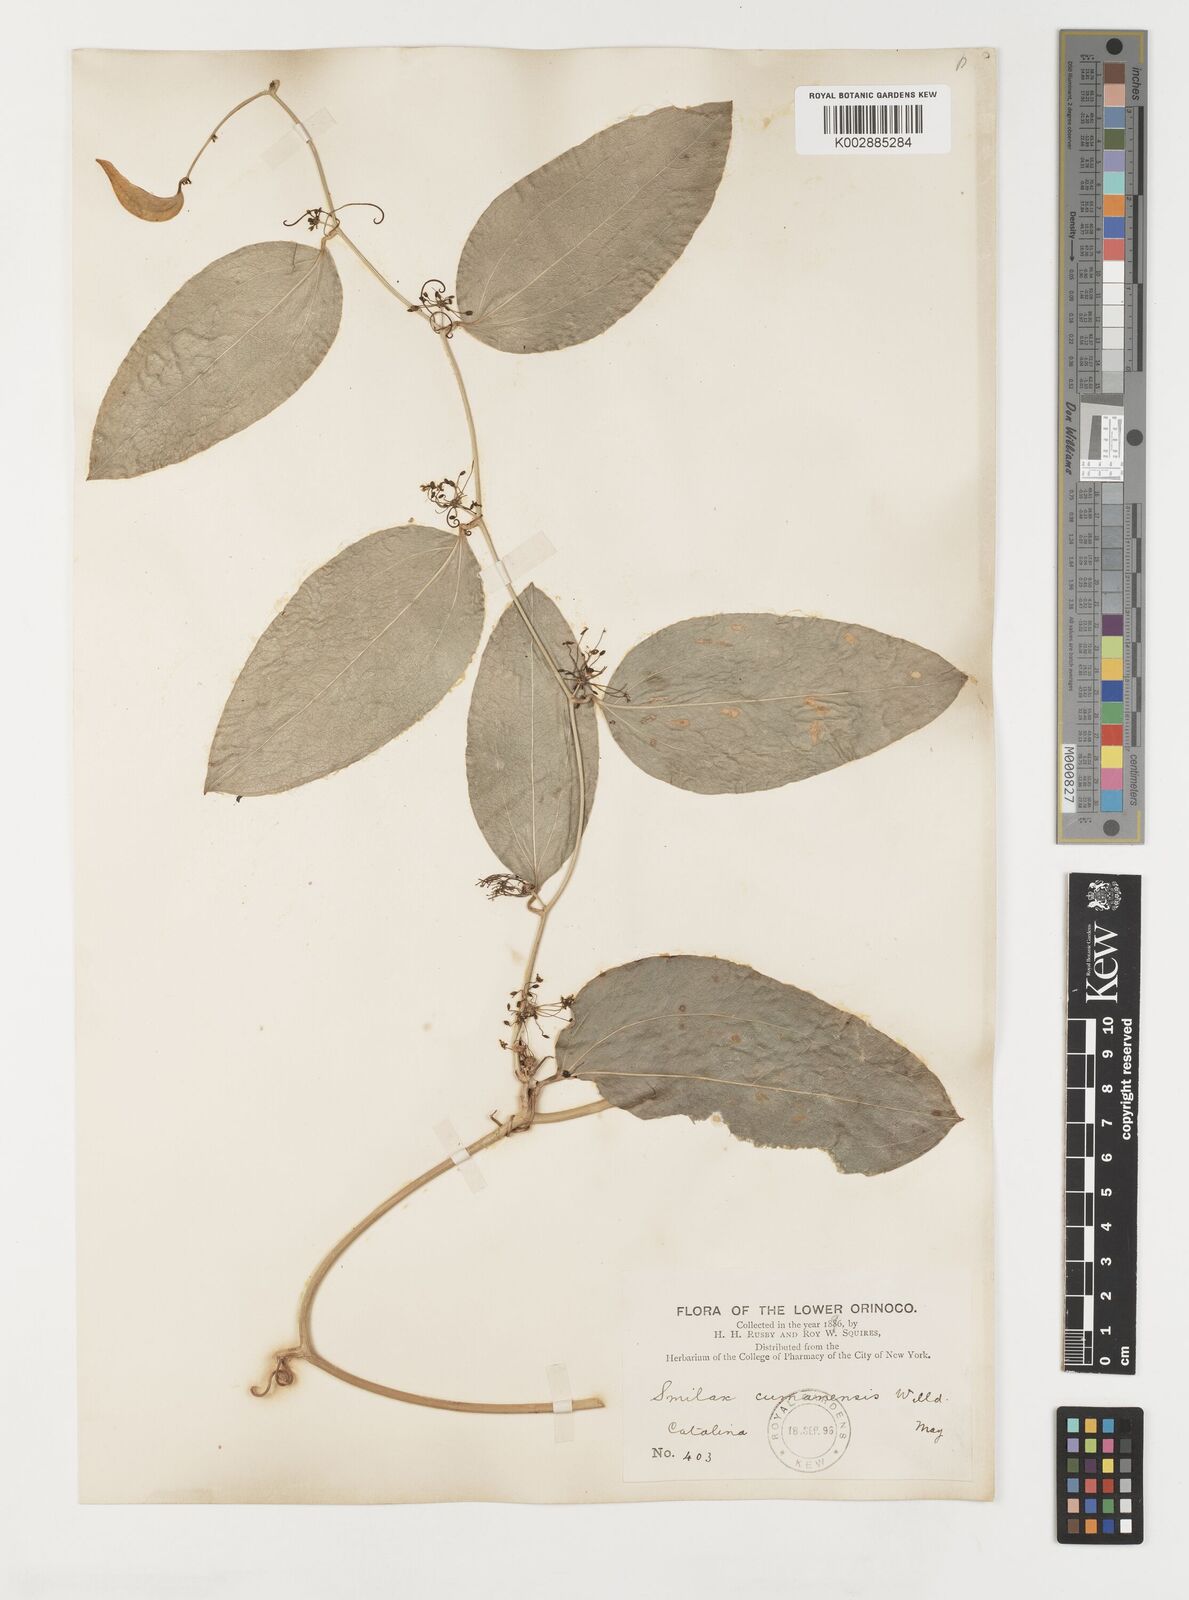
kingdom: Plantae
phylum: Tracheophyta
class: Liliopsida
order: Liliales
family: Smilacaceae
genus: Smilax
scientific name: Smilax oblongata
